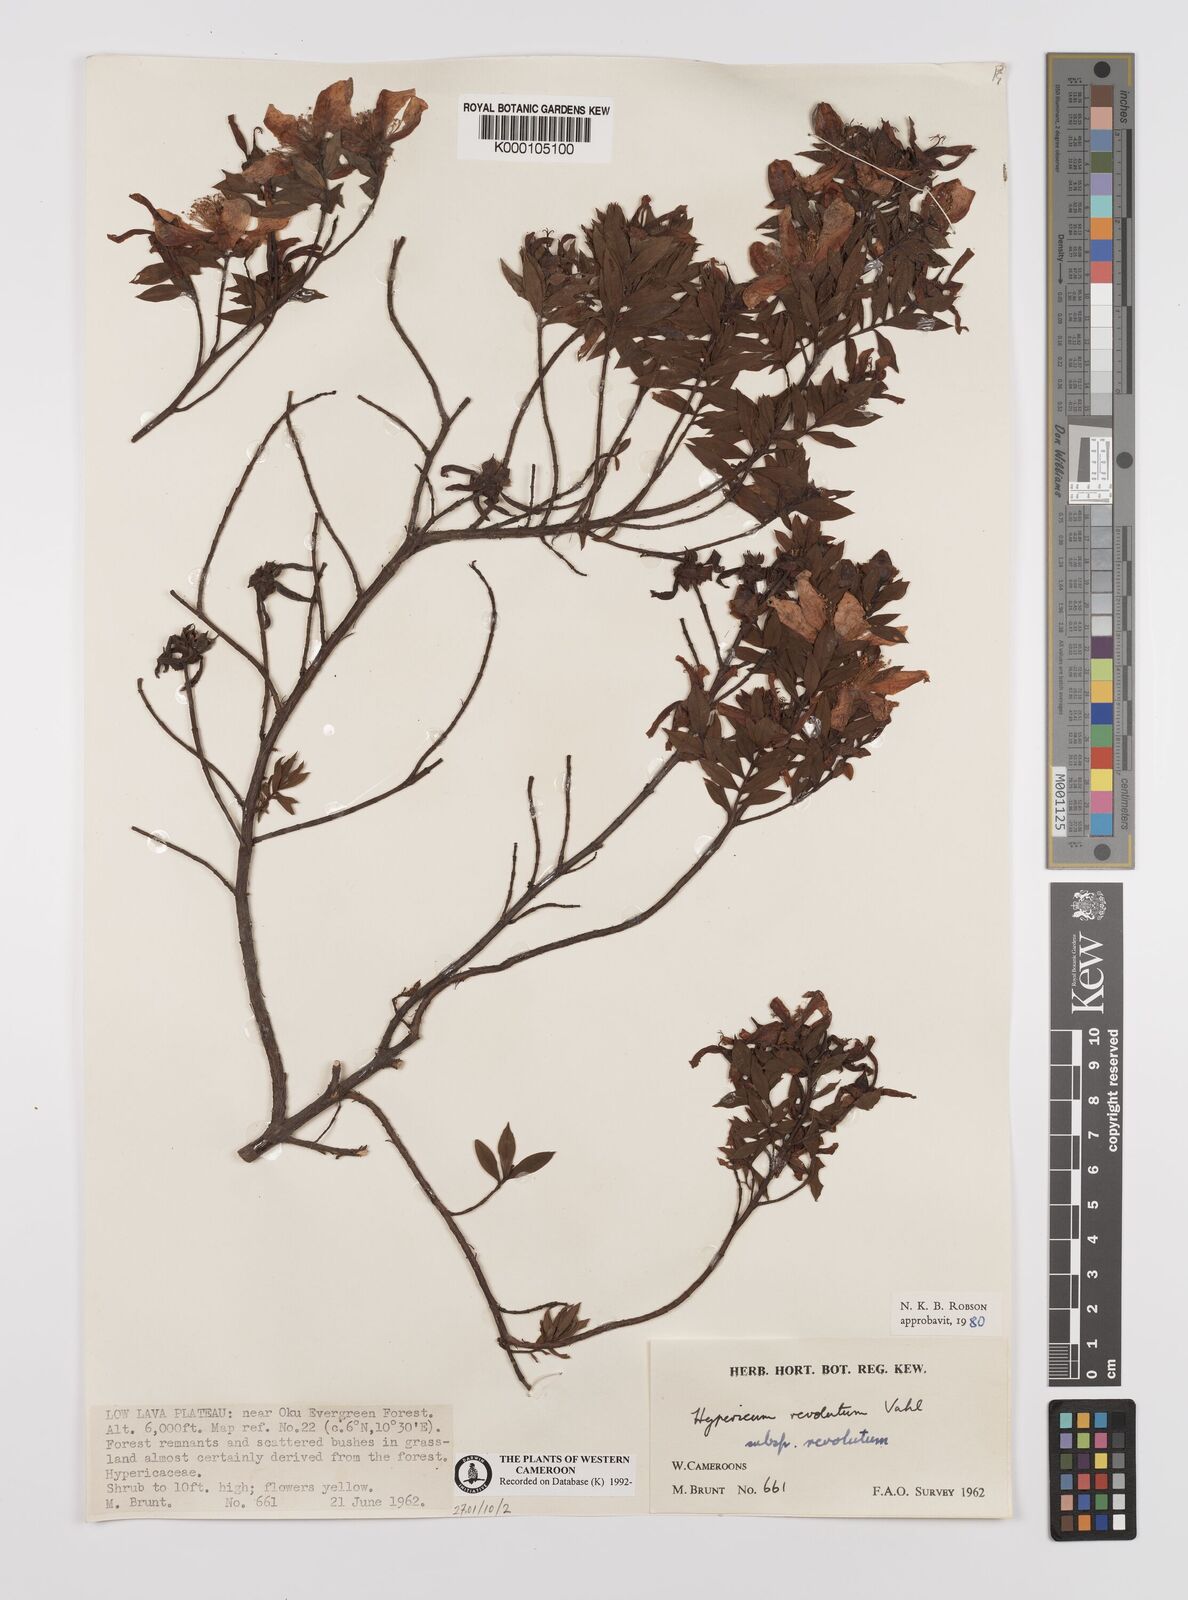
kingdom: Plantae
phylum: Tracheophyta
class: Magnoliopsida
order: Malpighiales
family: Hypericaceae
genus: Hypericum
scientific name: Hypericum revolutum
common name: Curry bush
